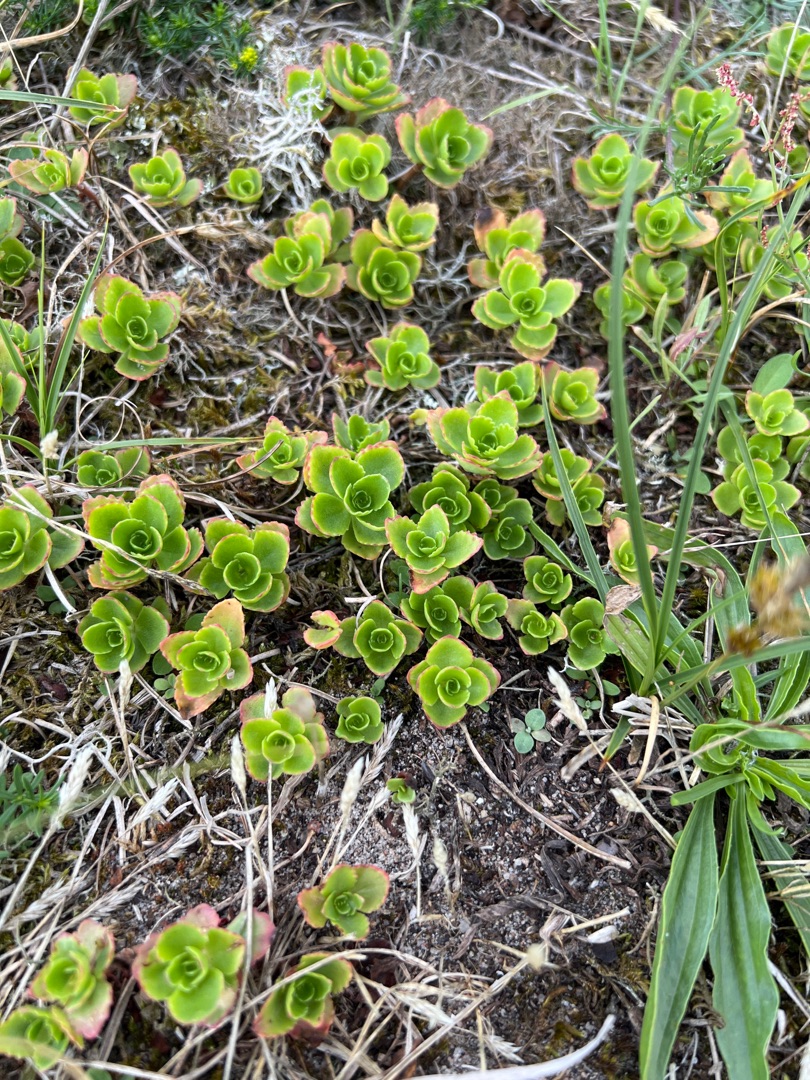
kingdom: Plantae
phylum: Tracheophyta
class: Magnoliopsida
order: Saxifragales
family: Crassulaceae
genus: Phedimus
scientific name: Phedimus spurius
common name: Rød stenurt
